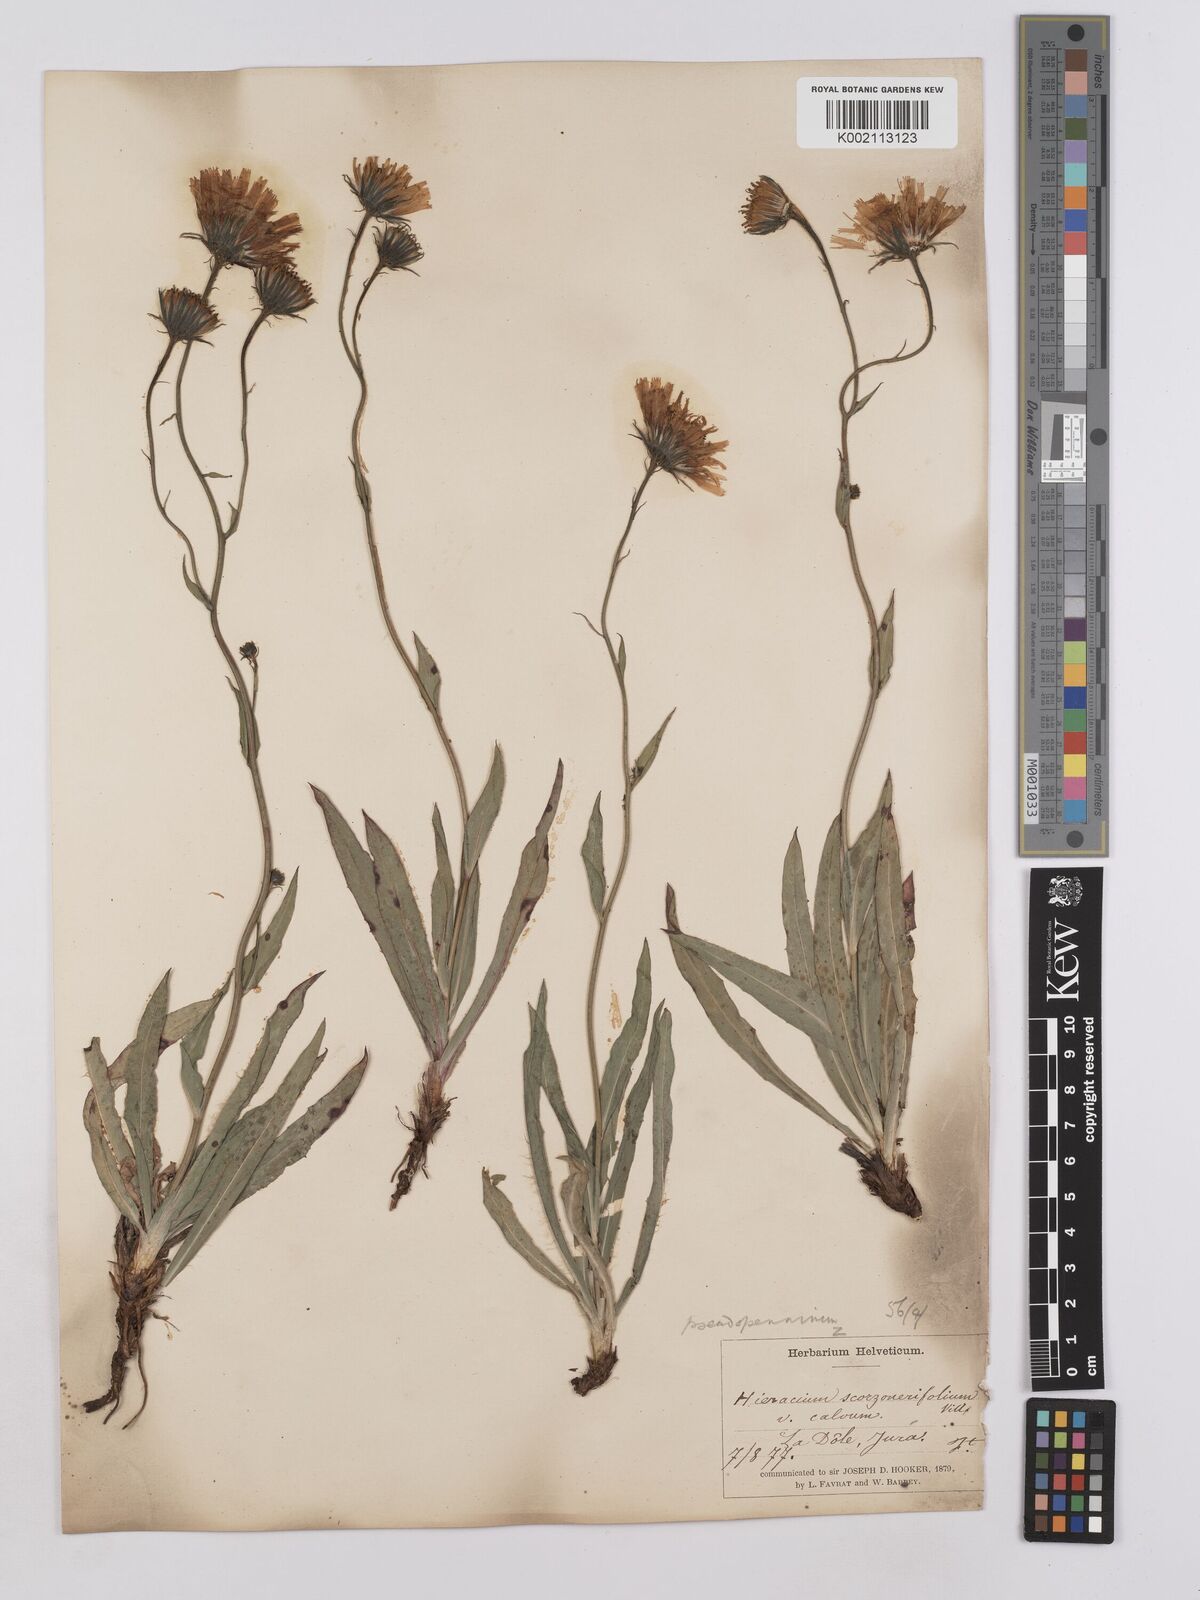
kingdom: Plantae
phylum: Tracheophyta
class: Magnoliopsida
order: Asterales
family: Asteraceae
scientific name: Asteraceae
